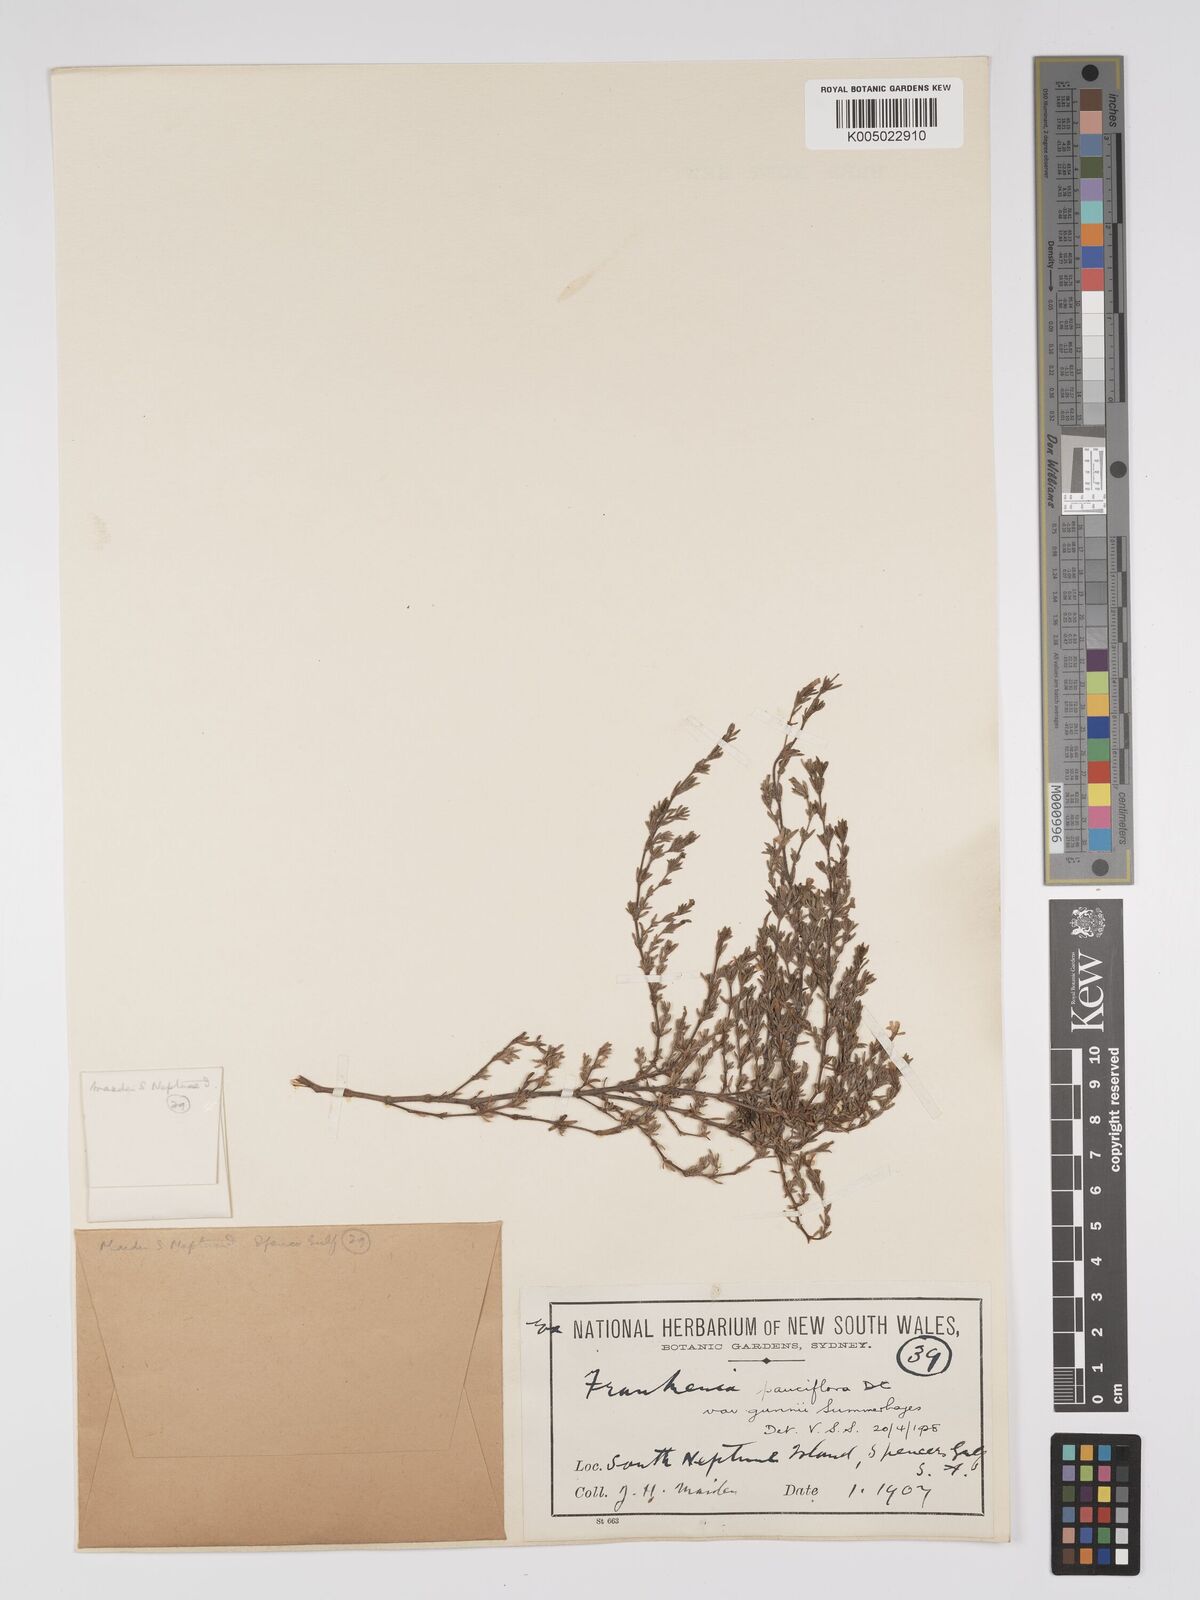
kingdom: Plantae
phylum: Tracheophyta
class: Magnoliopsida
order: Caryophyllales
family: Frankeniaceae
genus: Frankenia
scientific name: Frankenia pauciflora
